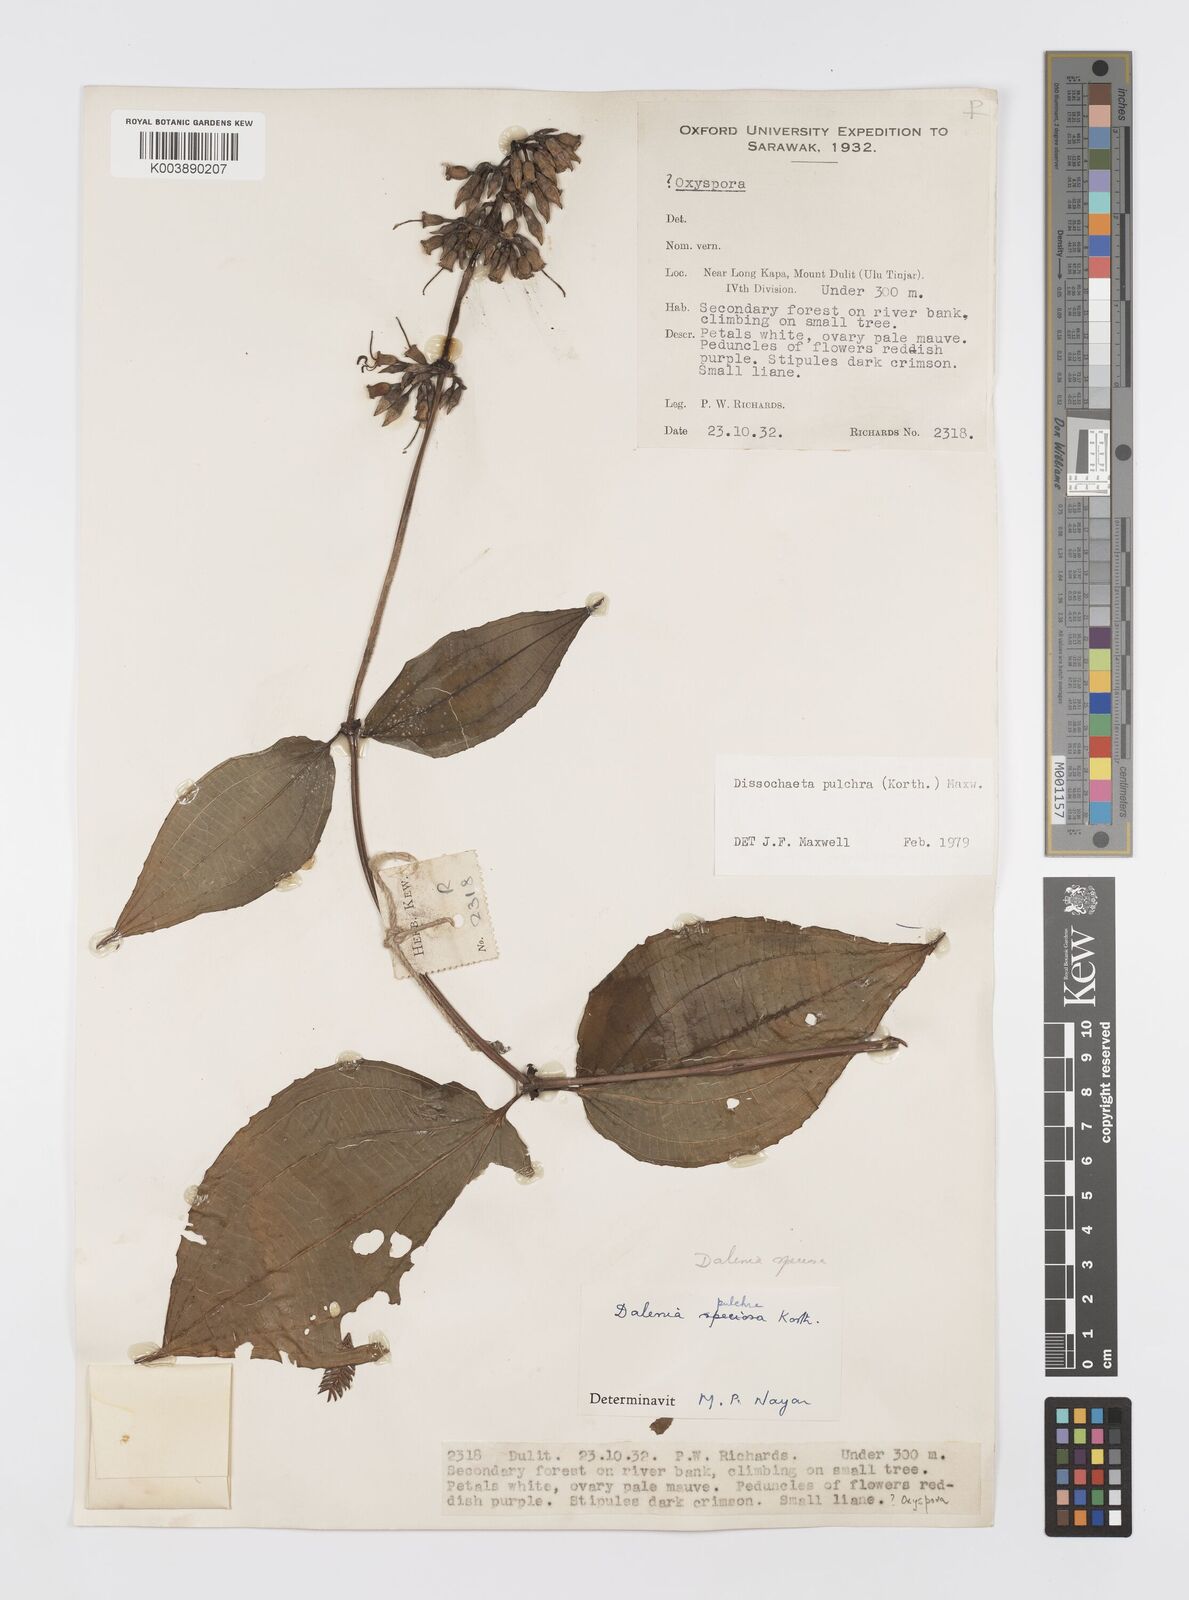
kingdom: Plantae
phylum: Tracheophyta
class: Magnoliopsida
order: Myrtales
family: Melastomataceae
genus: Dalenia
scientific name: Dalenia pulchra
